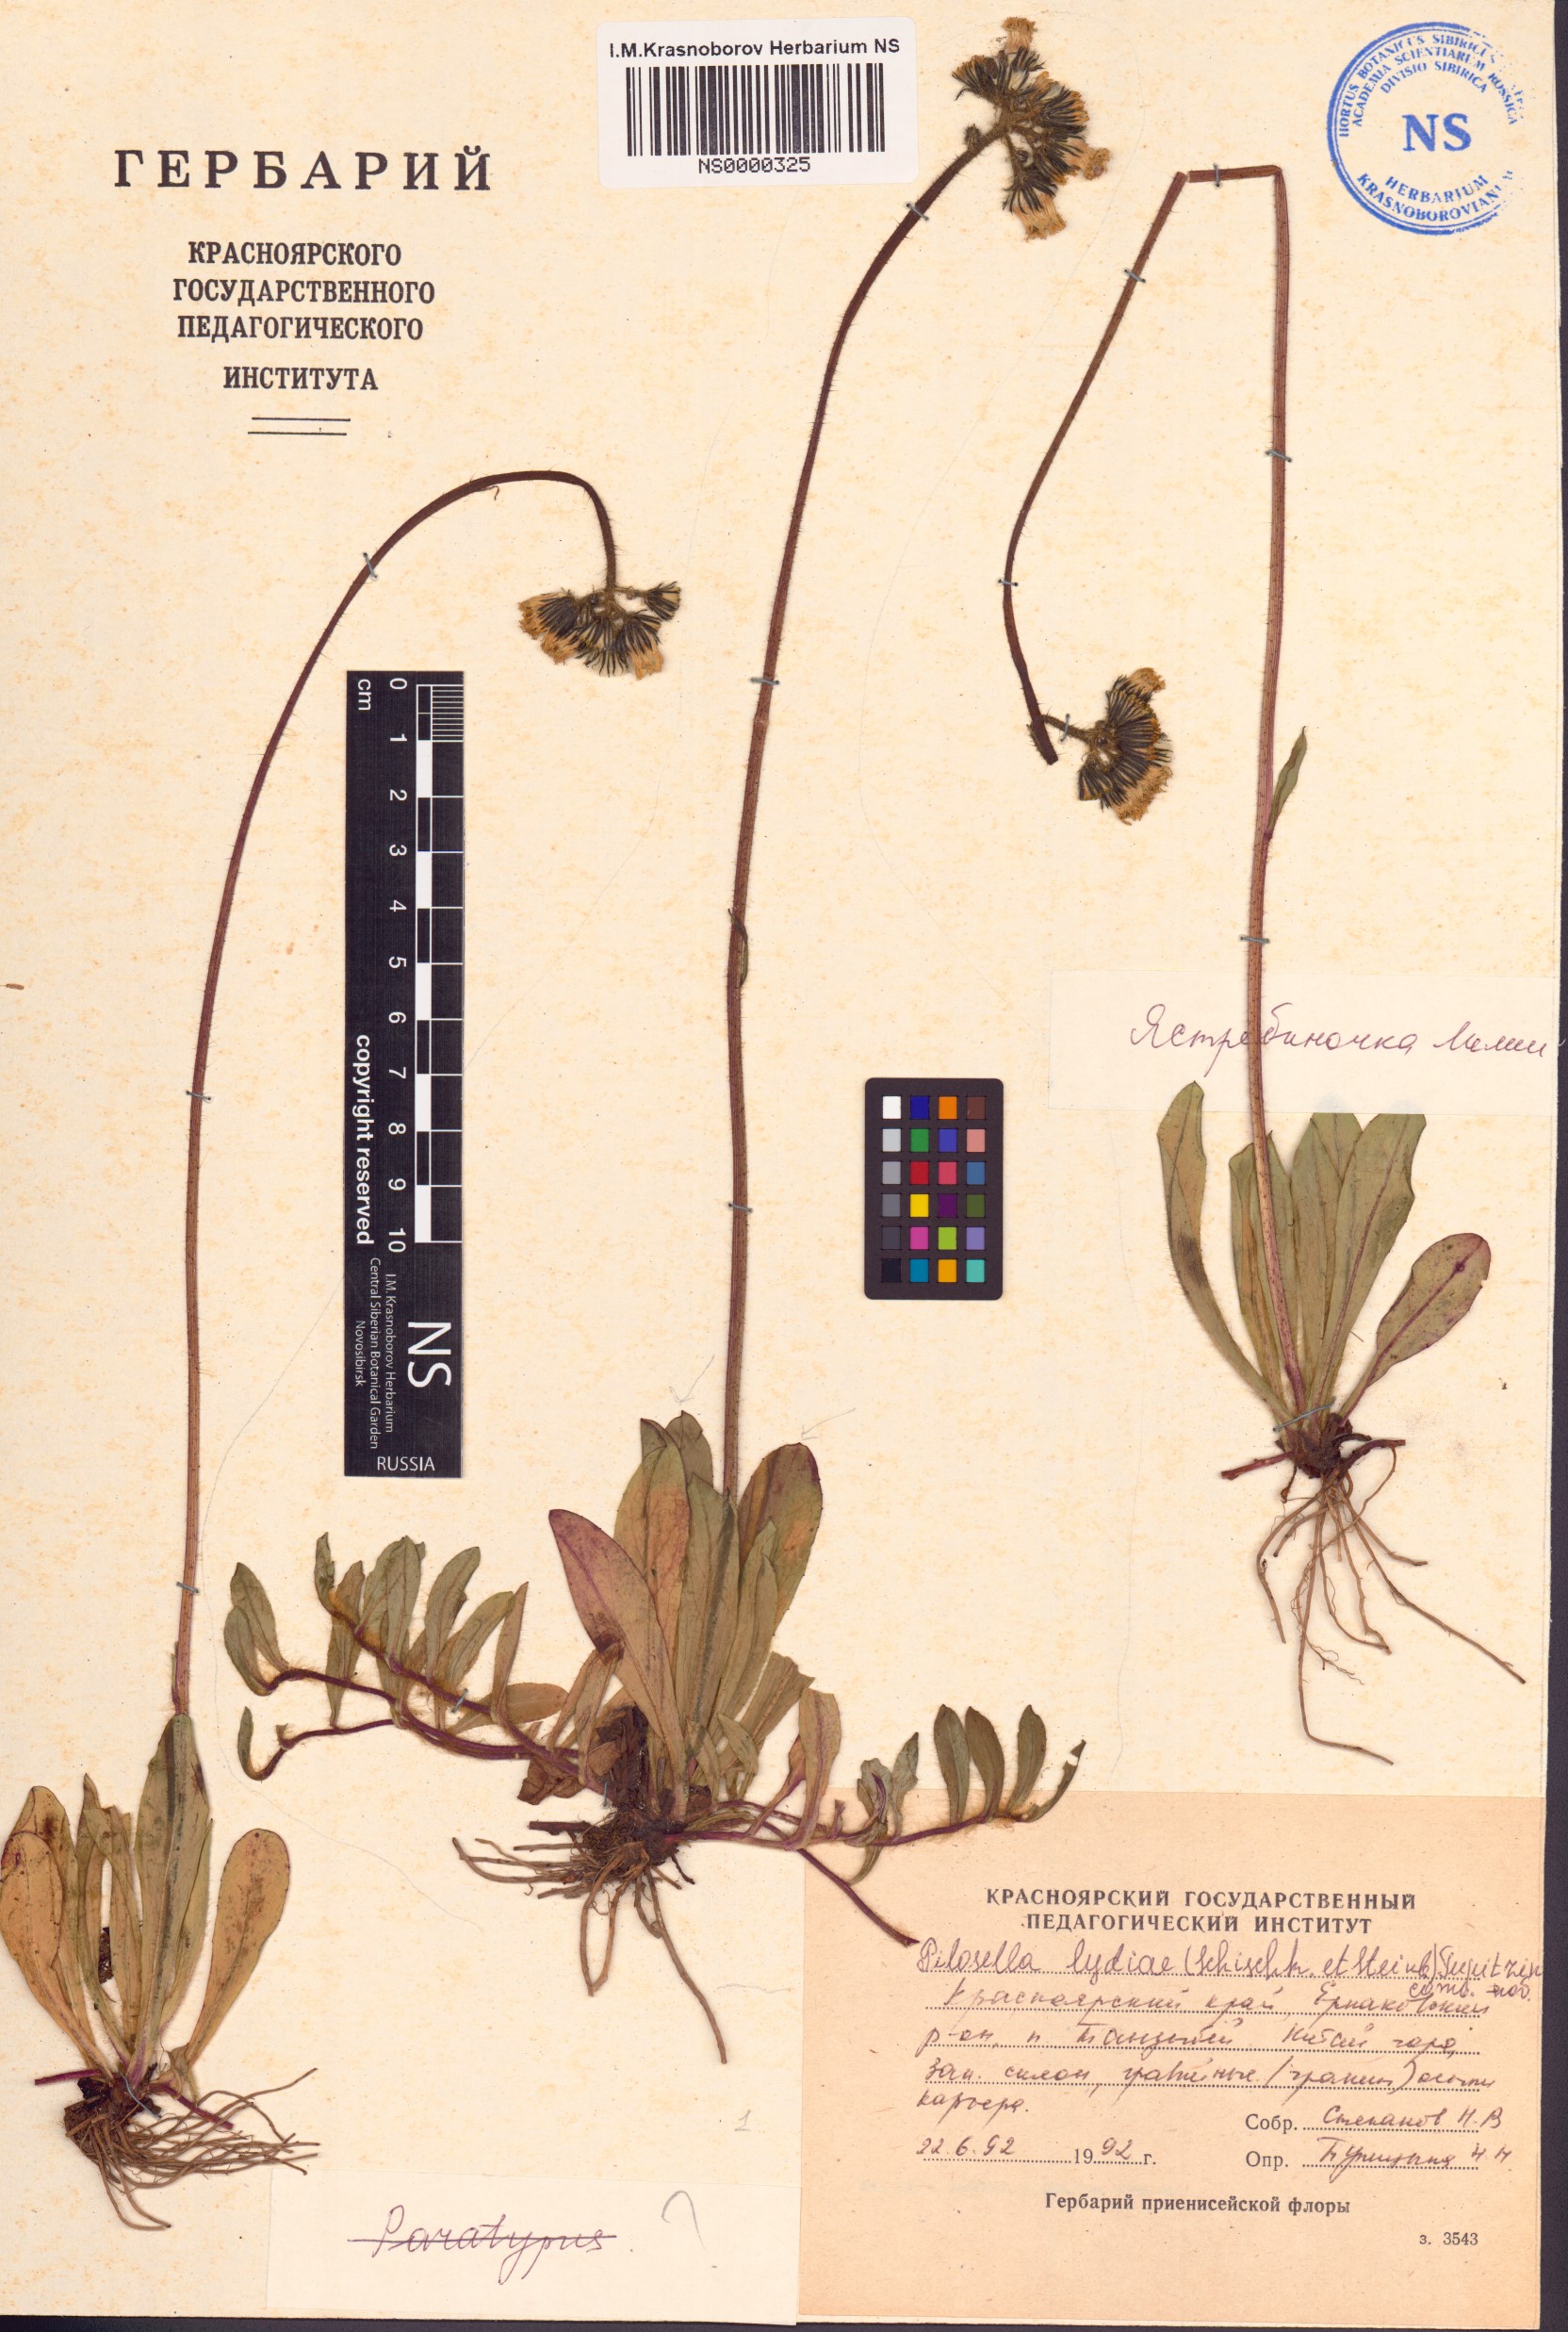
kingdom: Plantae
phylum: Tracheophyta
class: Magnoliopsida
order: Asterales
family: Asteraceae
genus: Pilosella
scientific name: Pilosella lydiae
